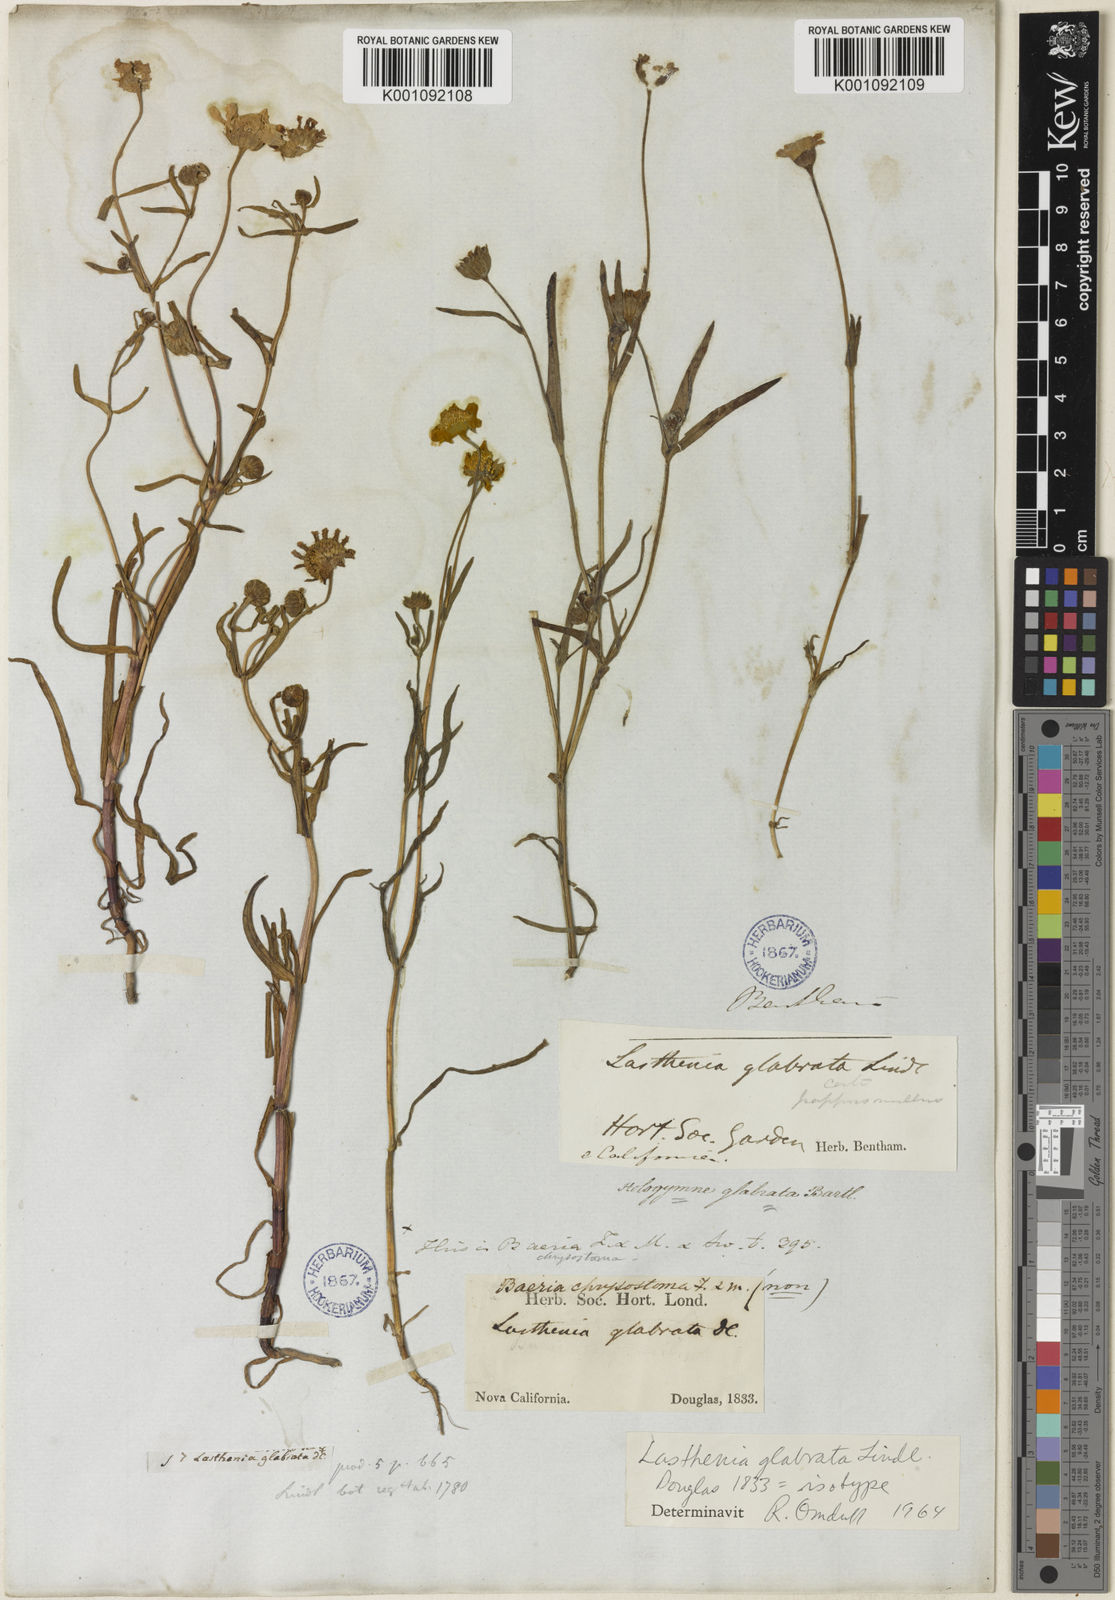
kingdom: Plantae
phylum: Tracheophyta
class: Magnoliopsida
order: Asterales
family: Asteraceae
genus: Lasthenia
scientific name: Lasthenia glabrata
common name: Yellow-ray lasthenia
